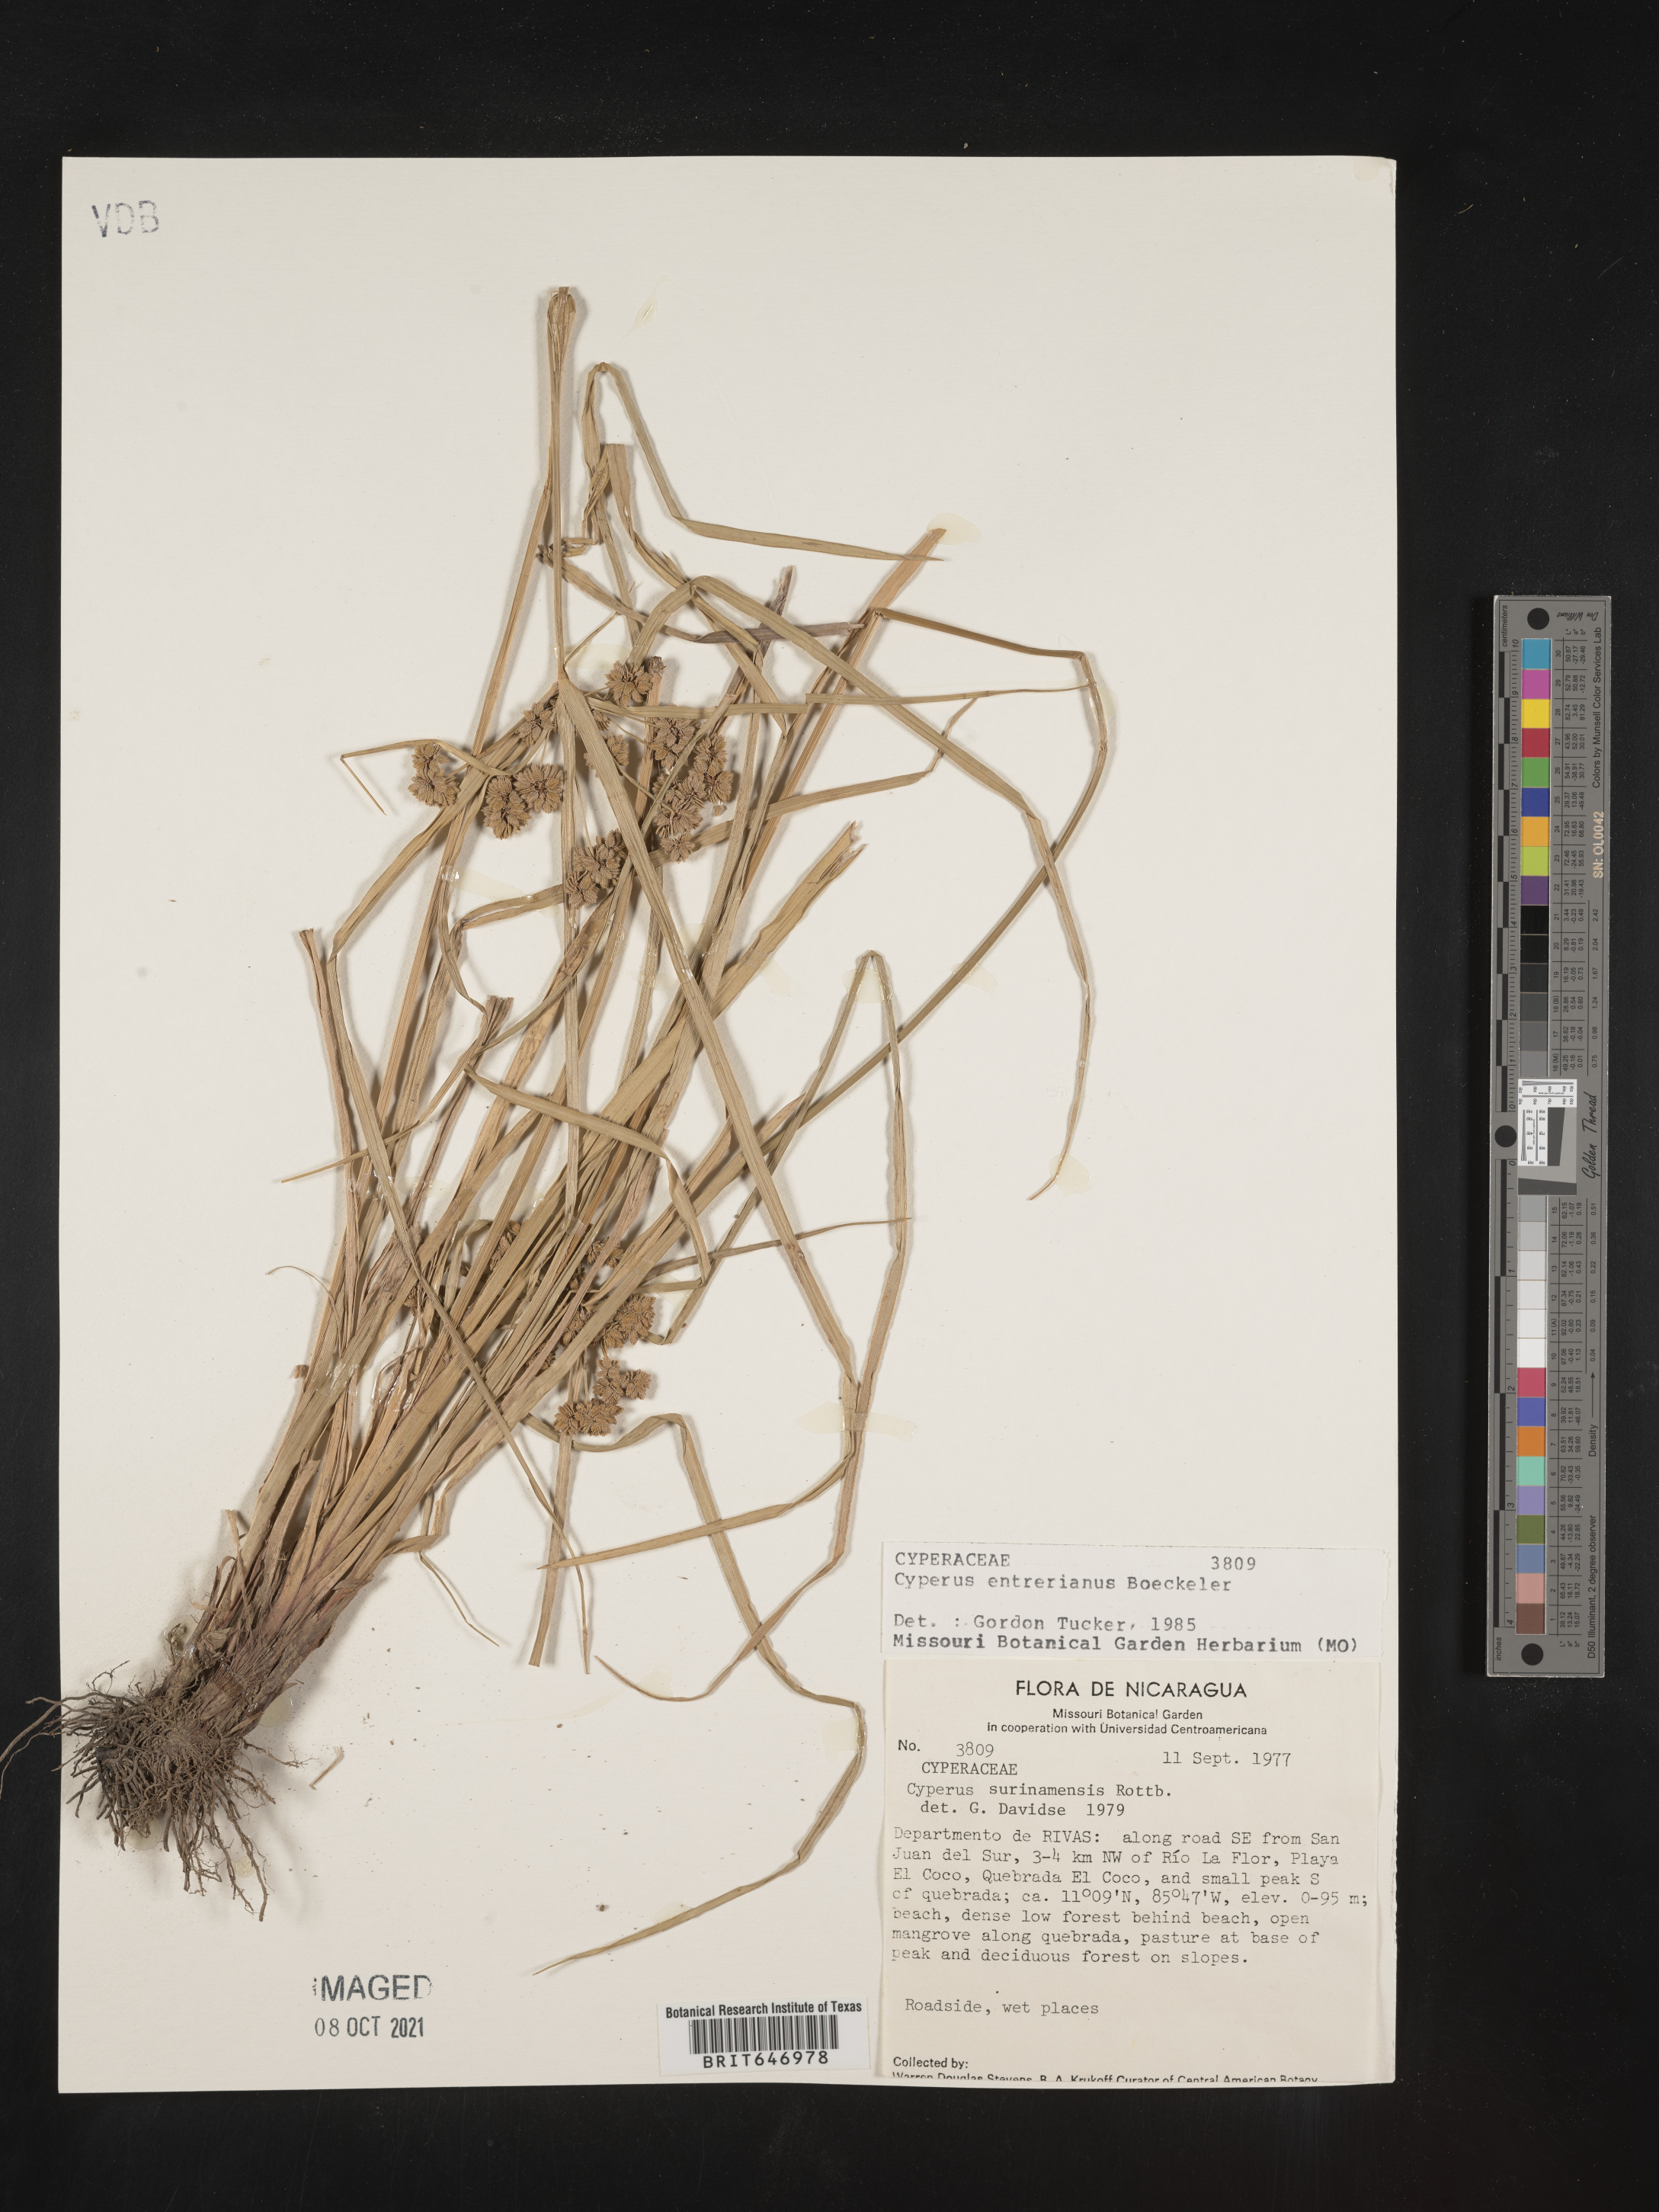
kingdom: Plantae
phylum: Tracheophyta
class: Liliopsida
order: Poales
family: Cyperaceae
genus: Cyperus
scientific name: Cyperus entrerianus
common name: Woodrush flatsedge
